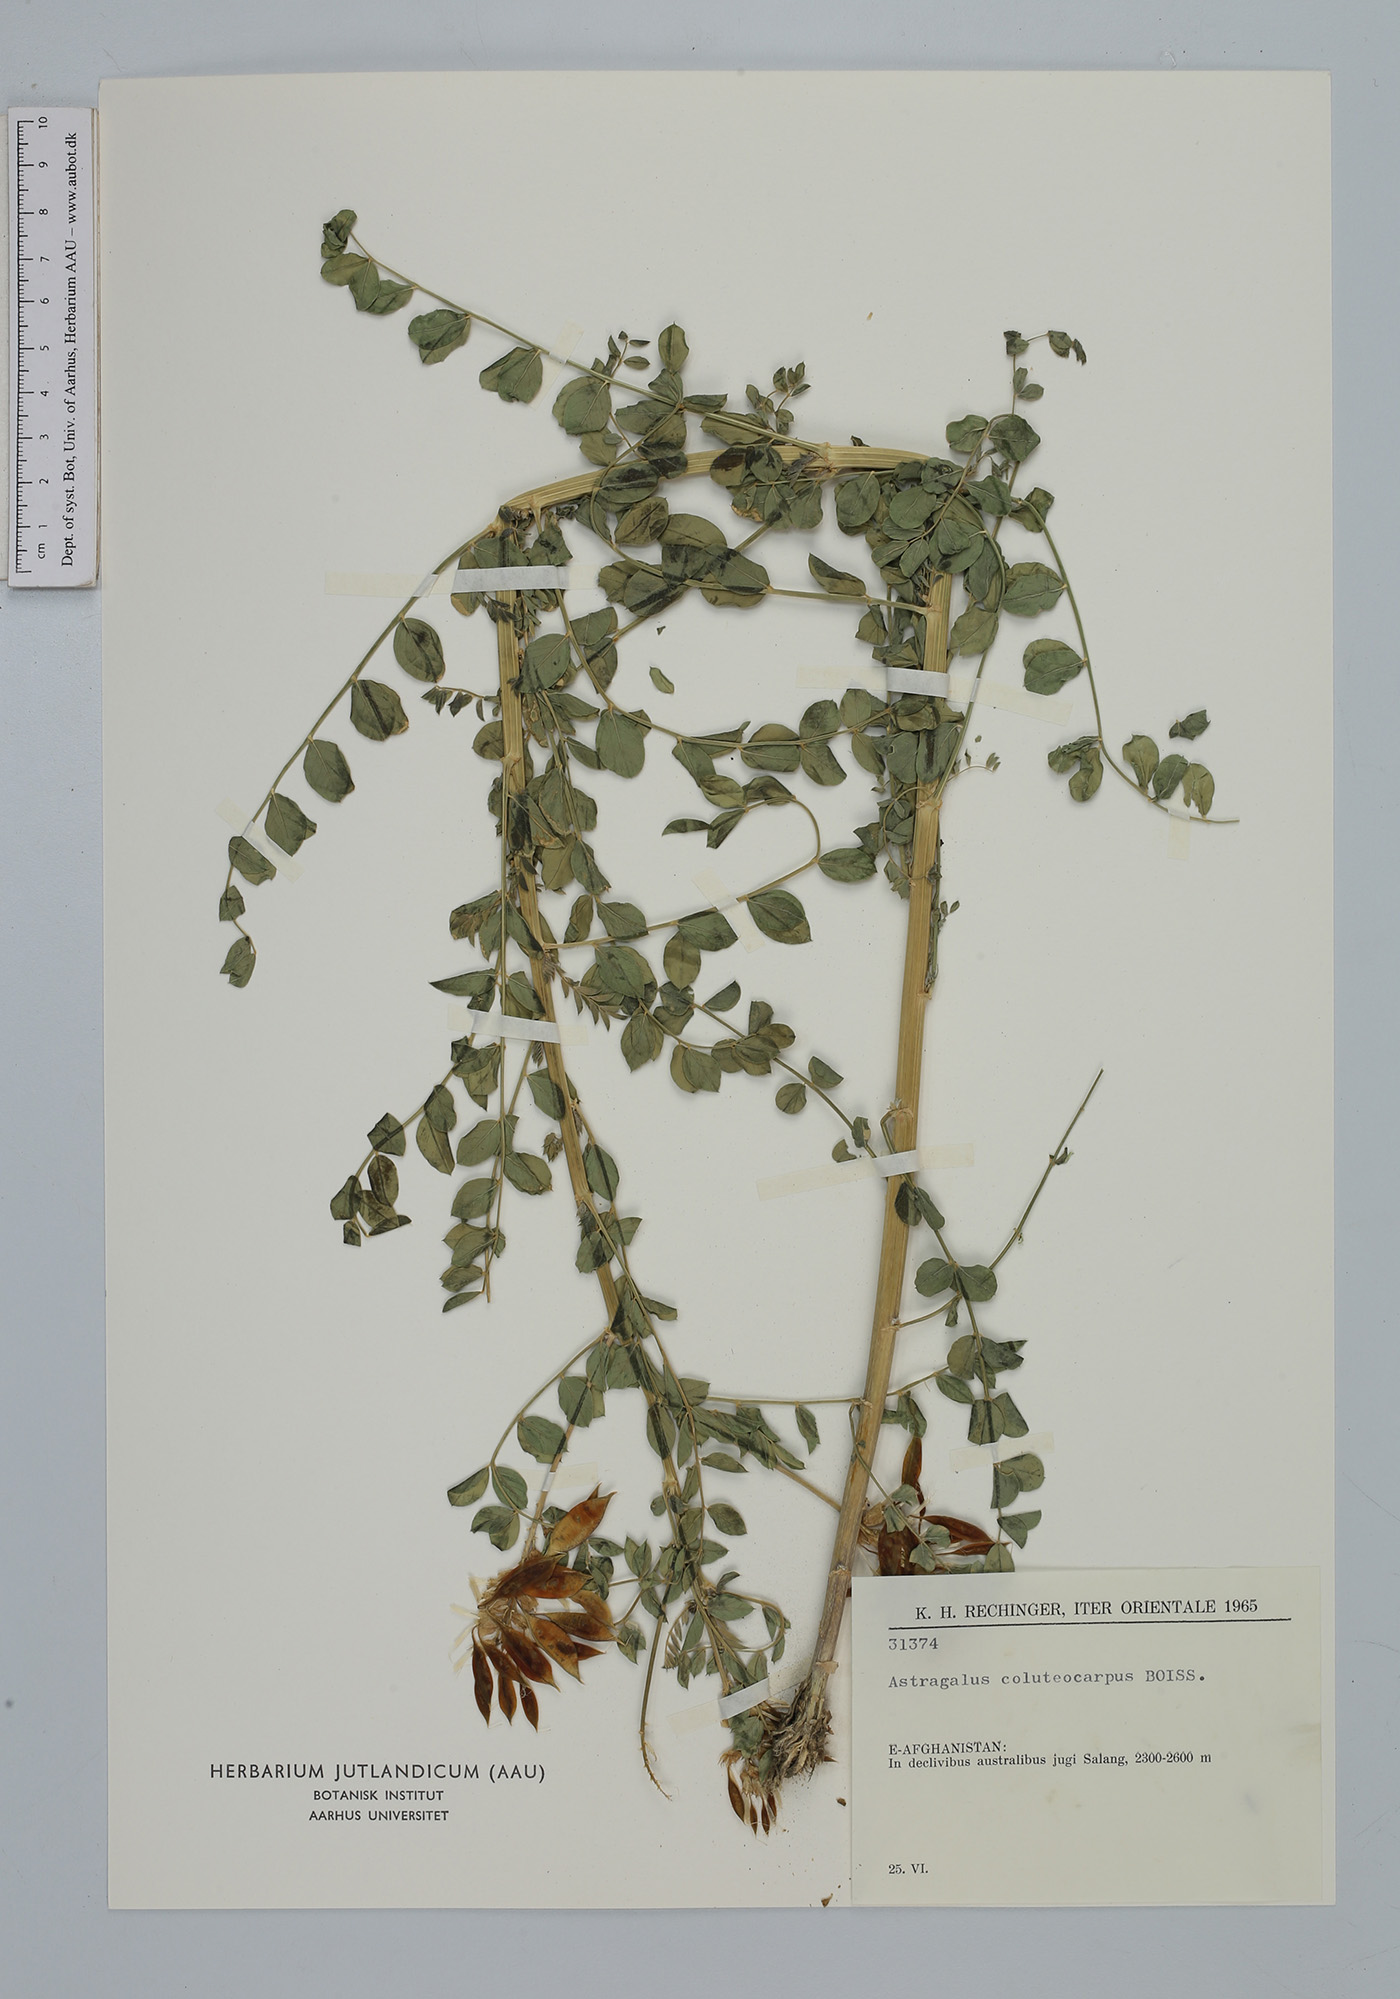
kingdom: Plantae
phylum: Tracheophyta
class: Magnoliopsida
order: Fabales
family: Fabaceae
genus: Astragalus
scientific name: Astragalus coluteocarpus
